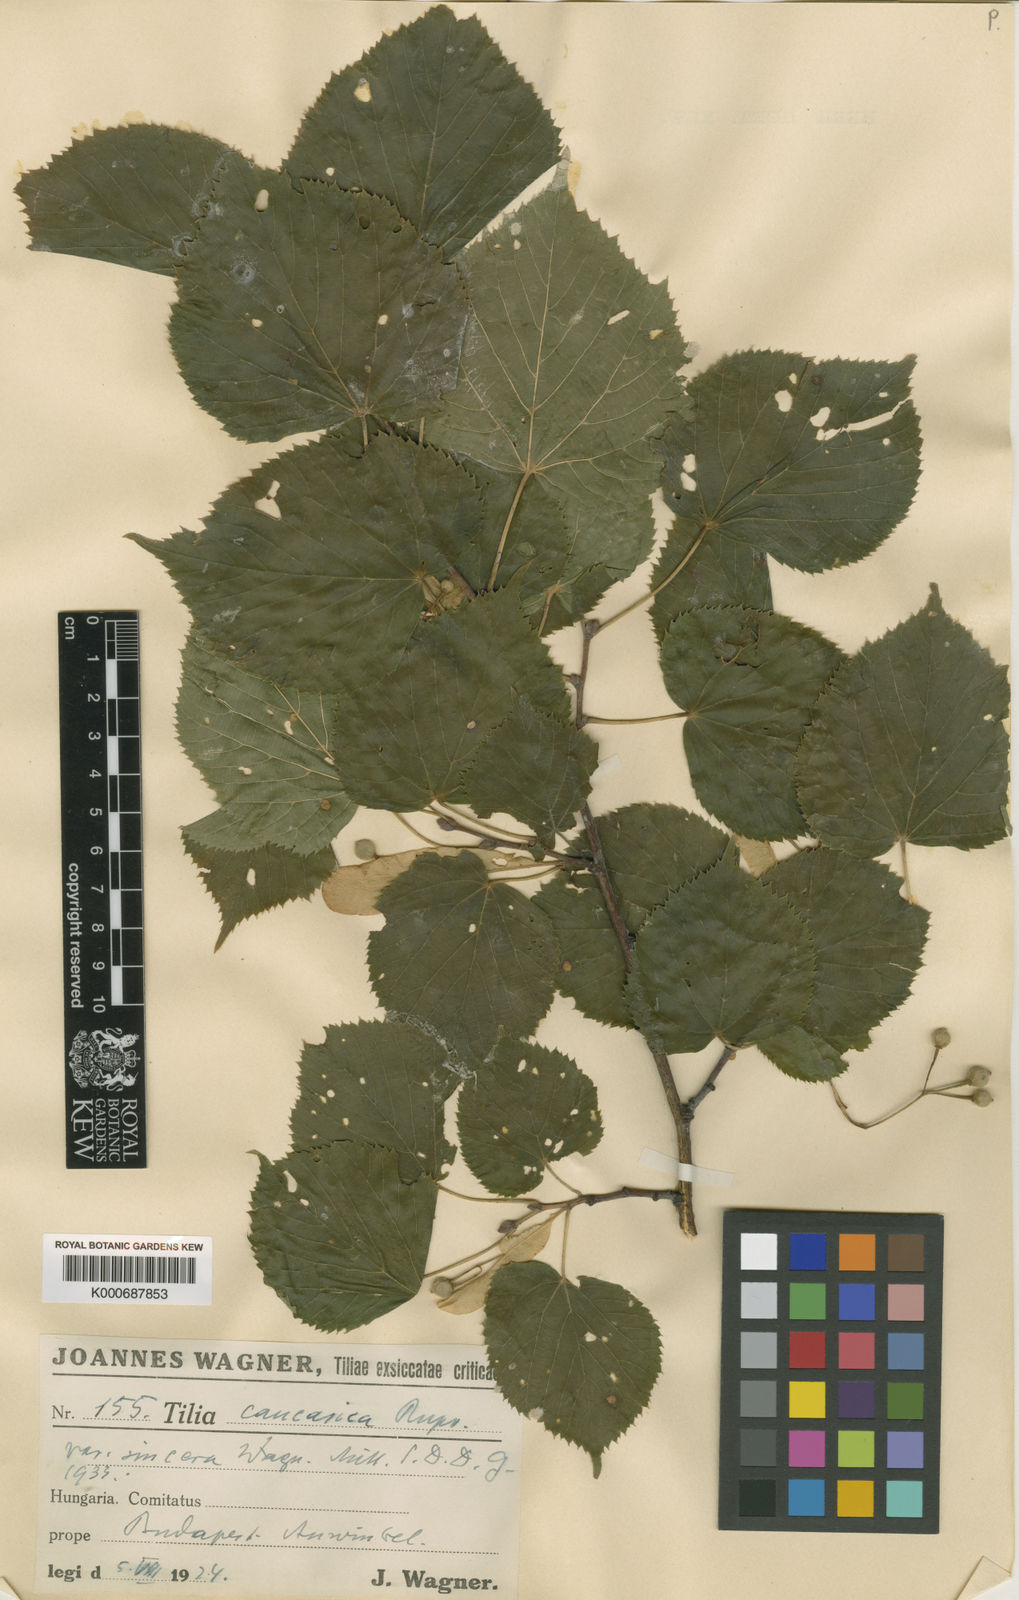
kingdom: Plantae
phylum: Tracheophyta
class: Magnoliopsida
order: Malvales
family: Malvaceae
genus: Tilia
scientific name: Tilia platyphyllos
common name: Large-leaved lime
